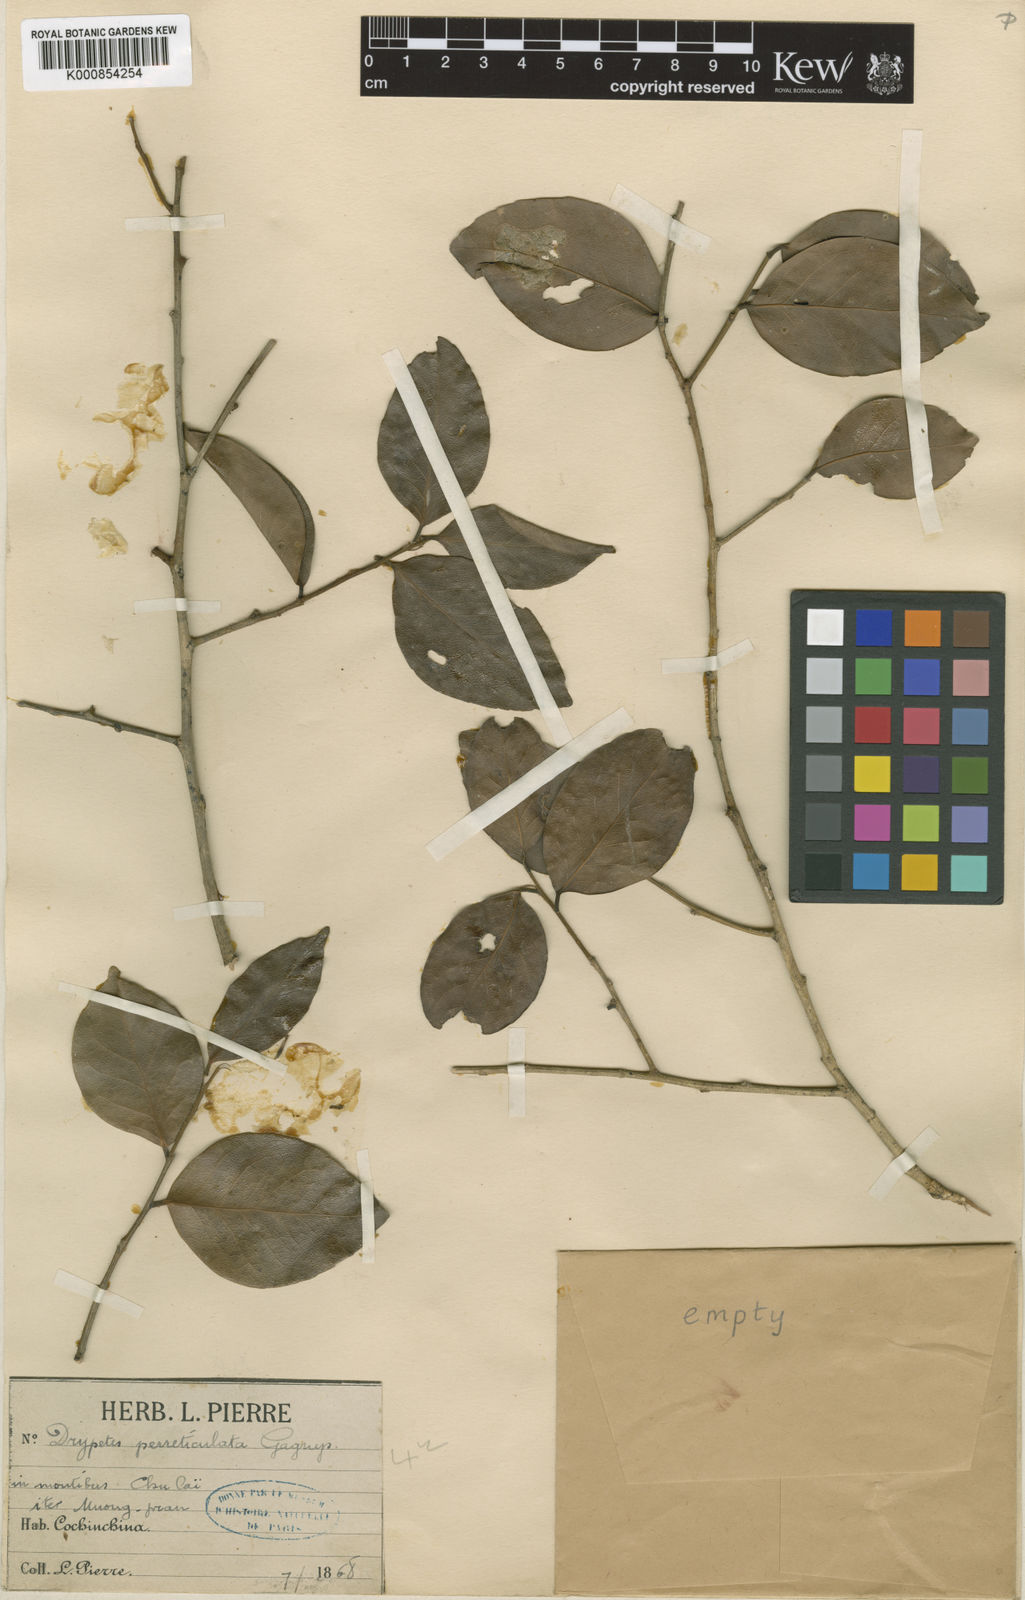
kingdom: Plantae
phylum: Tracheophyta
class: Magnoliopsida
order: Malpighiales
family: Putranjivaceae
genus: Drypetes
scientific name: Drypetes perreticulata
